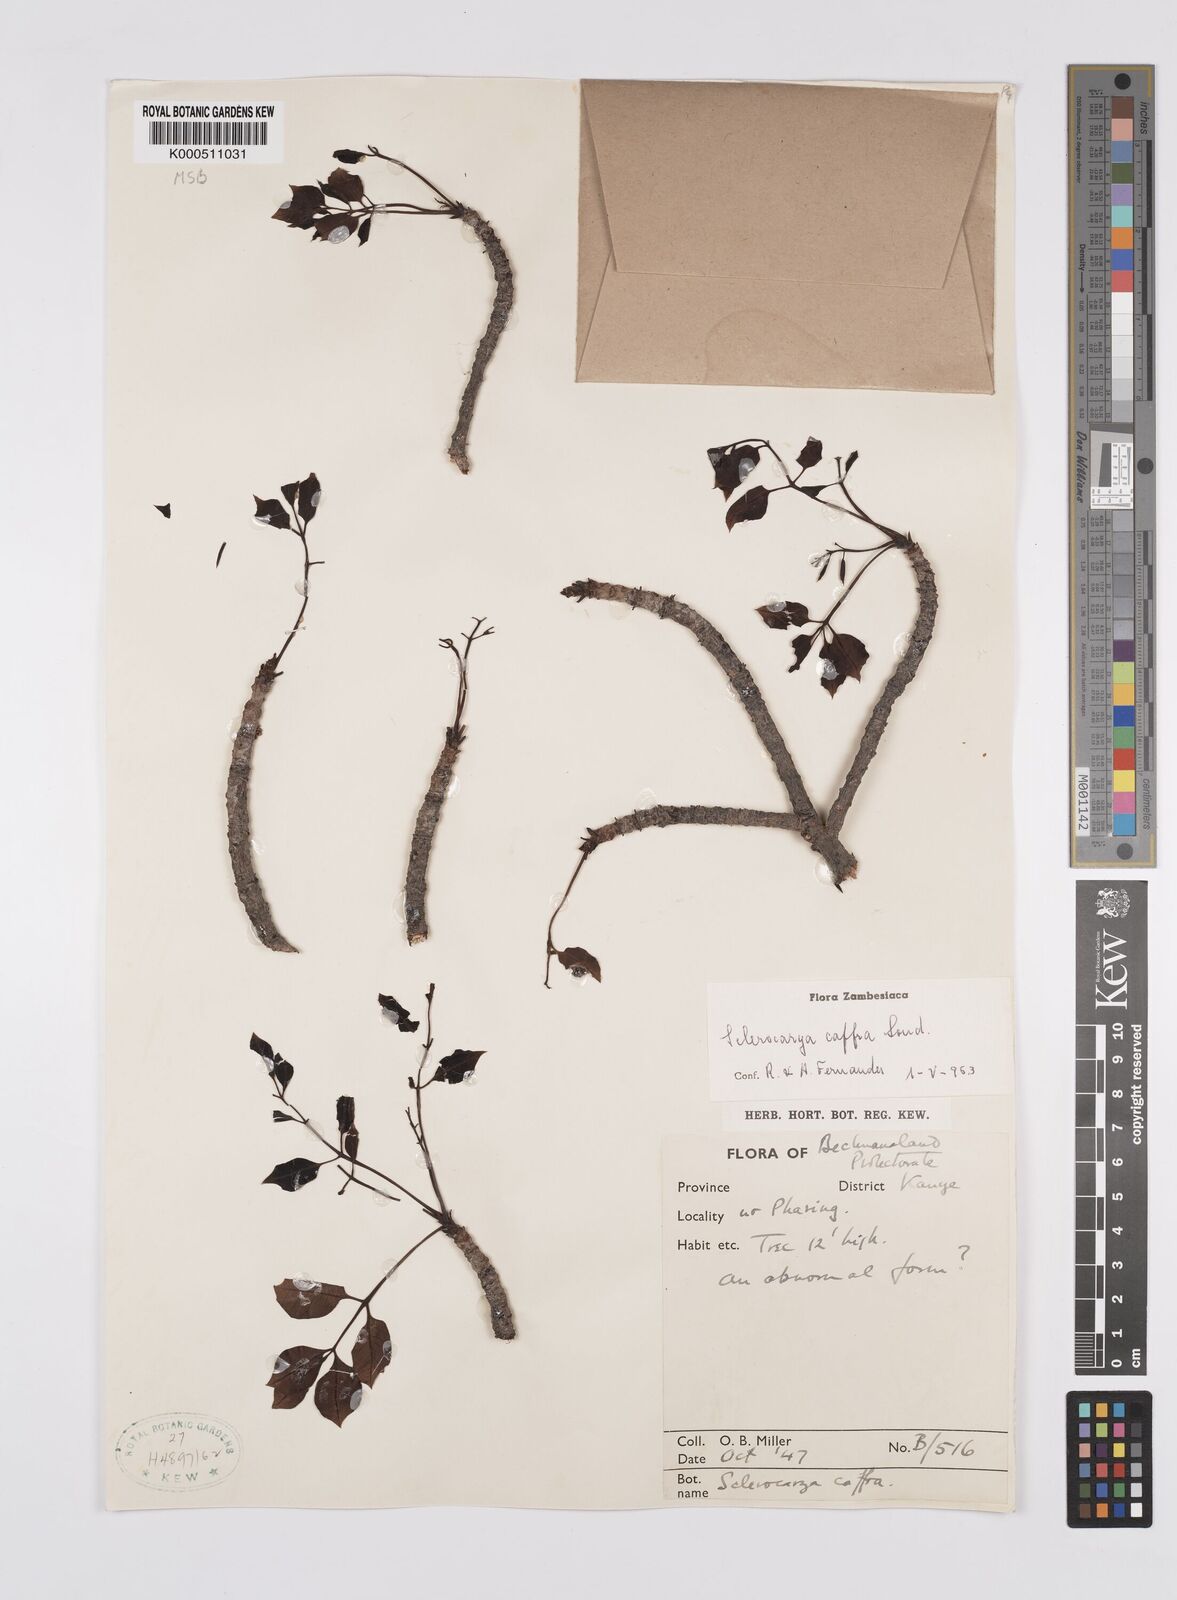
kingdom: Plantae
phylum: Tracheophyta
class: Magnoliopsida
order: Sapindales
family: Anacardiaceae
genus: Sclerocarya
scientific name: Sclerocarya birrea
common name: Marula
